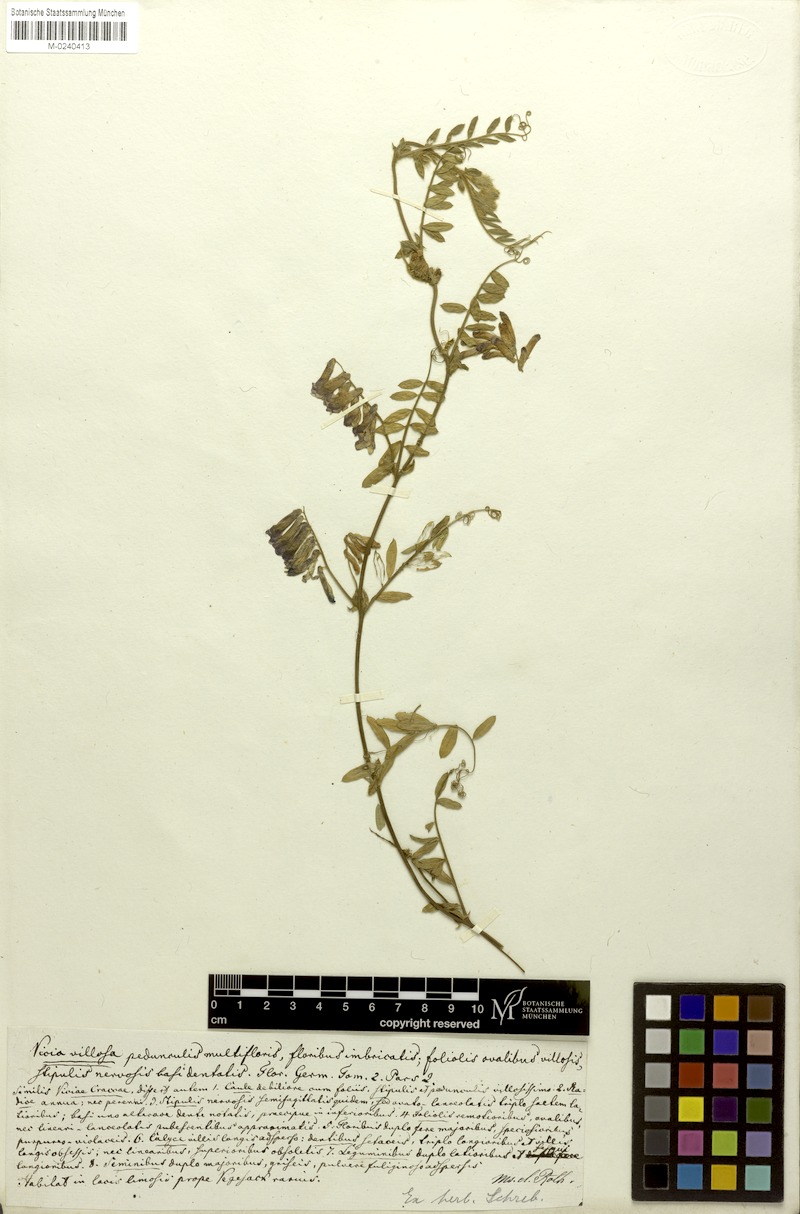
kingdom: Plantae
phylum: Tracheophyta
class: Magnoliopsida
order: Fabales
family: Fabaceae
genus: Vicia
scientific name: Vicia villosa
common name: Fodder vetch
